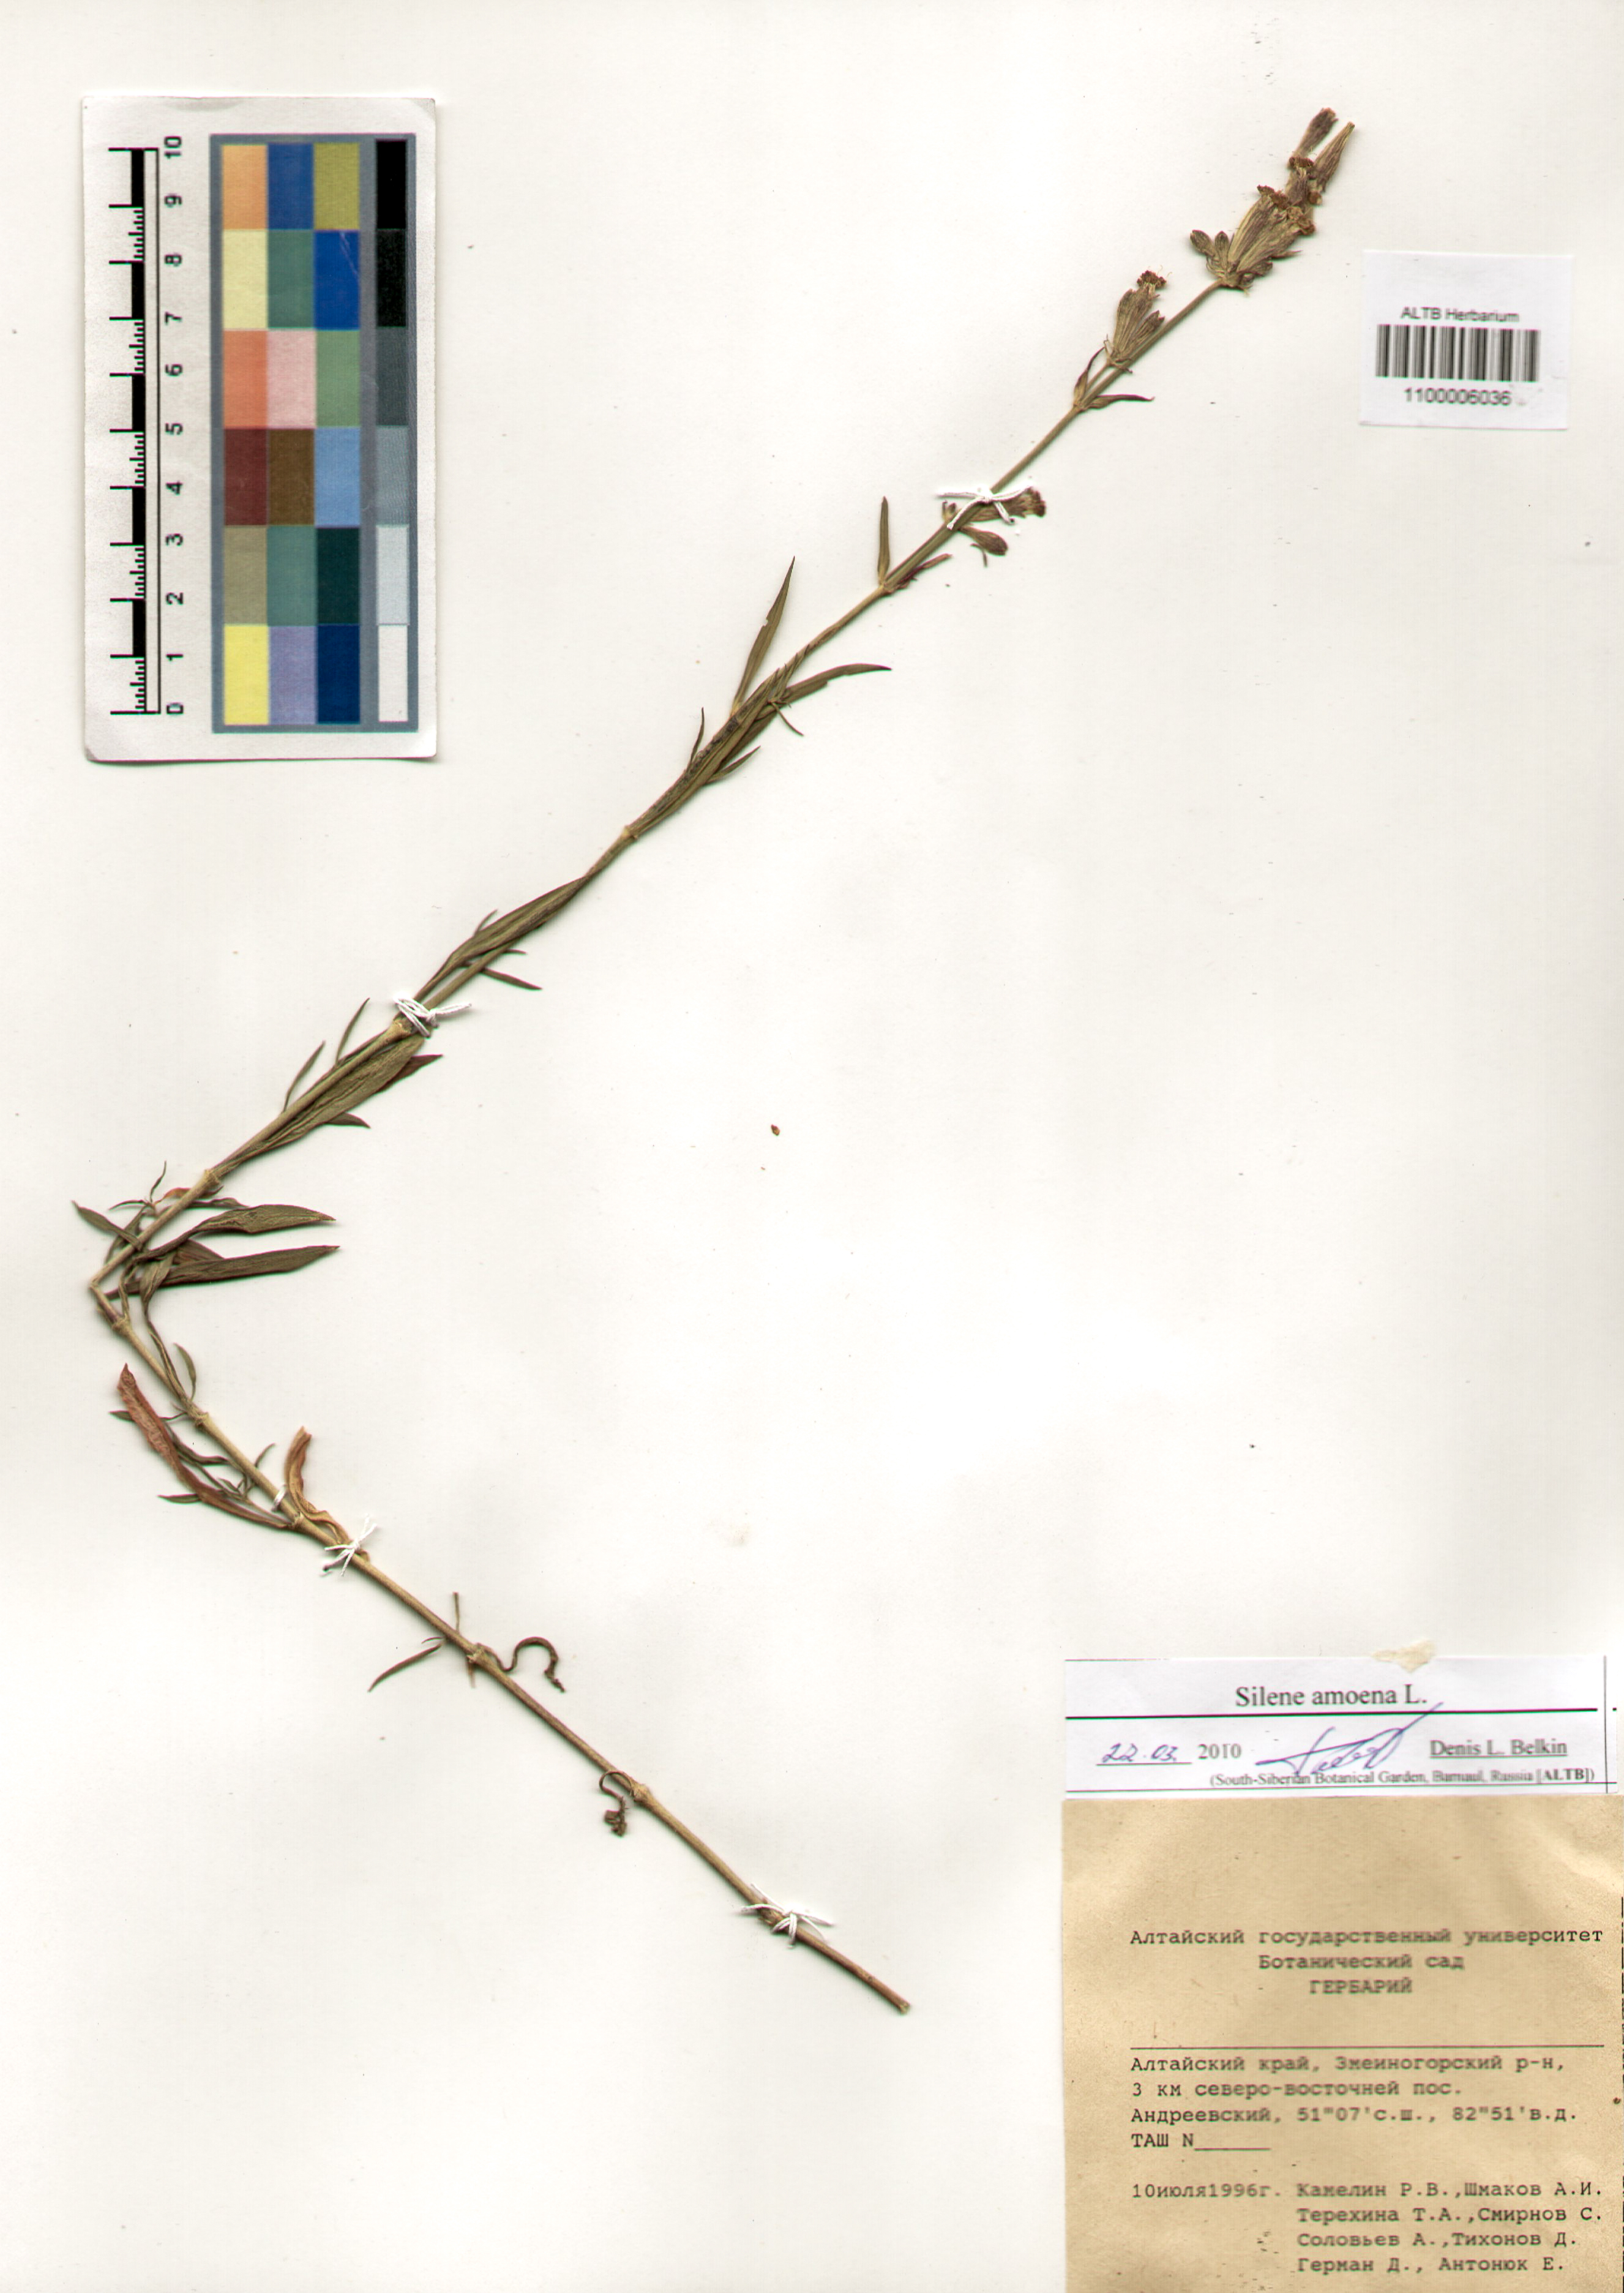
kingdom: Plantae
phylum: Tracheophyta
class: Magnoliopsida
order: Caryophyllales
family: Caryophyllaceae
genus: Silene
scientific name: Silene amoena
